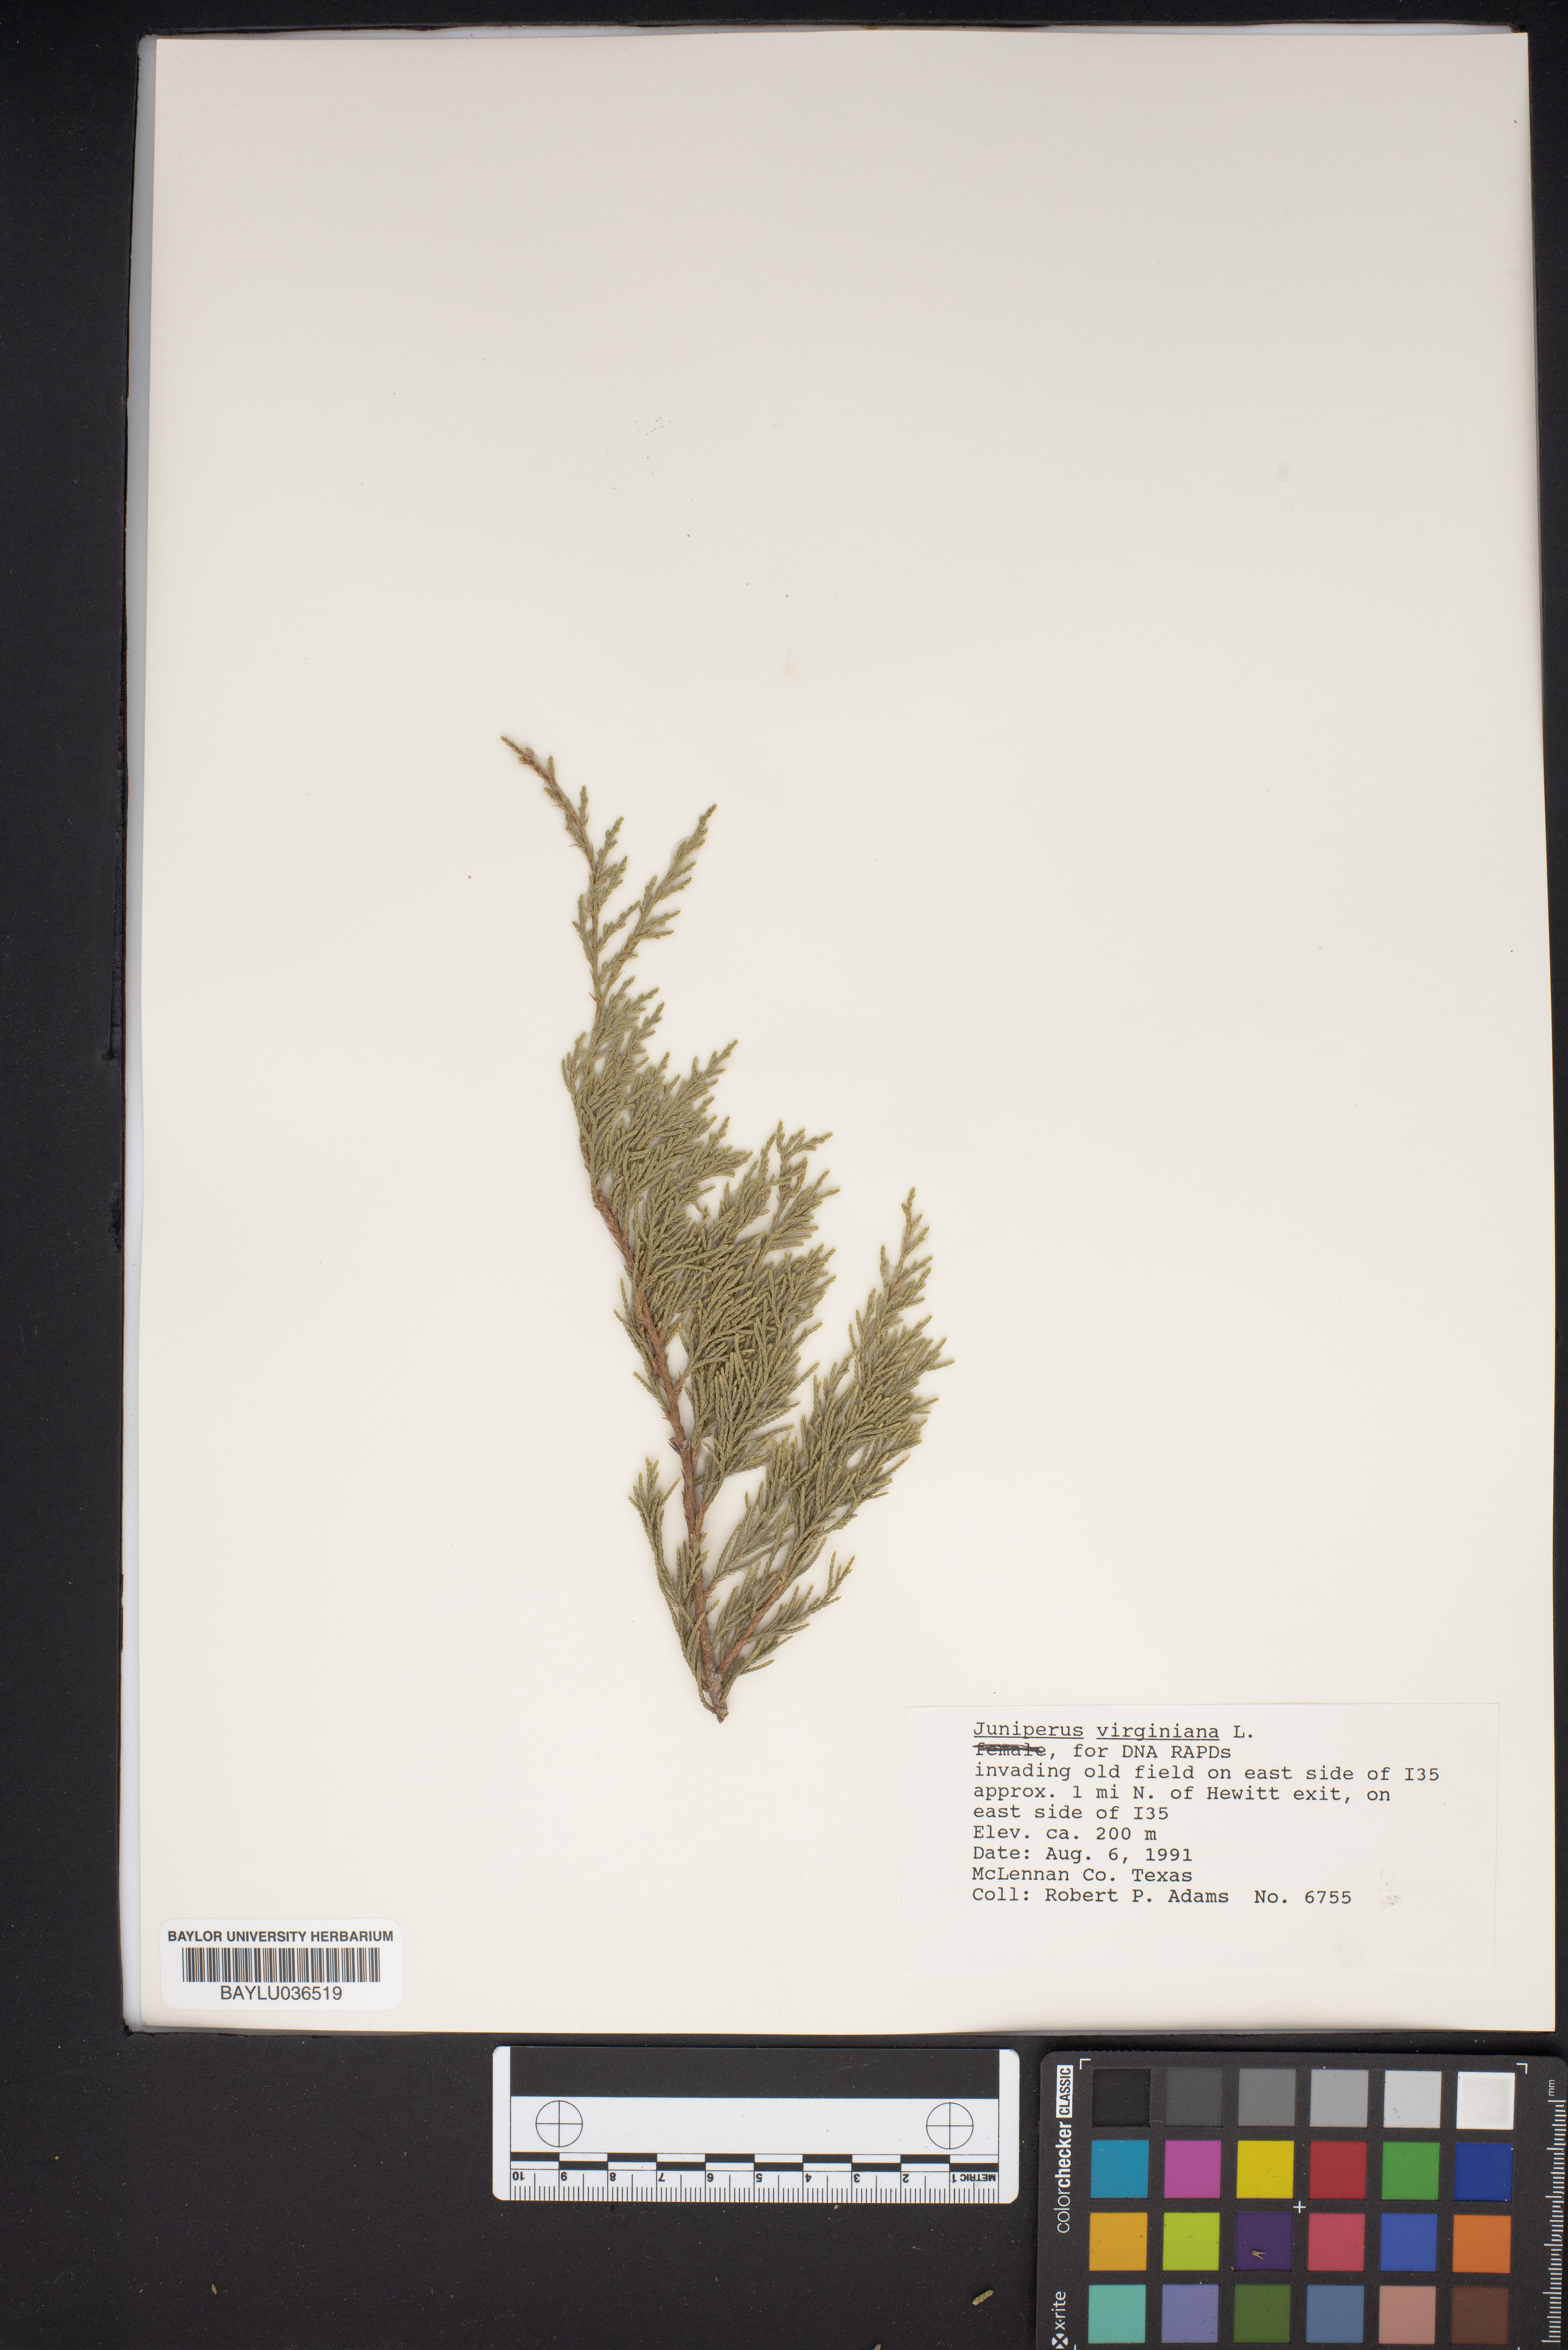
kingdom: Plantae
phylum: Tracheophyta
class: Pinopsida
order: Pinales
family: Cupressaceae
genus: Juniperus
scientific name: Juniperus virginiana
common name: Red juniper
